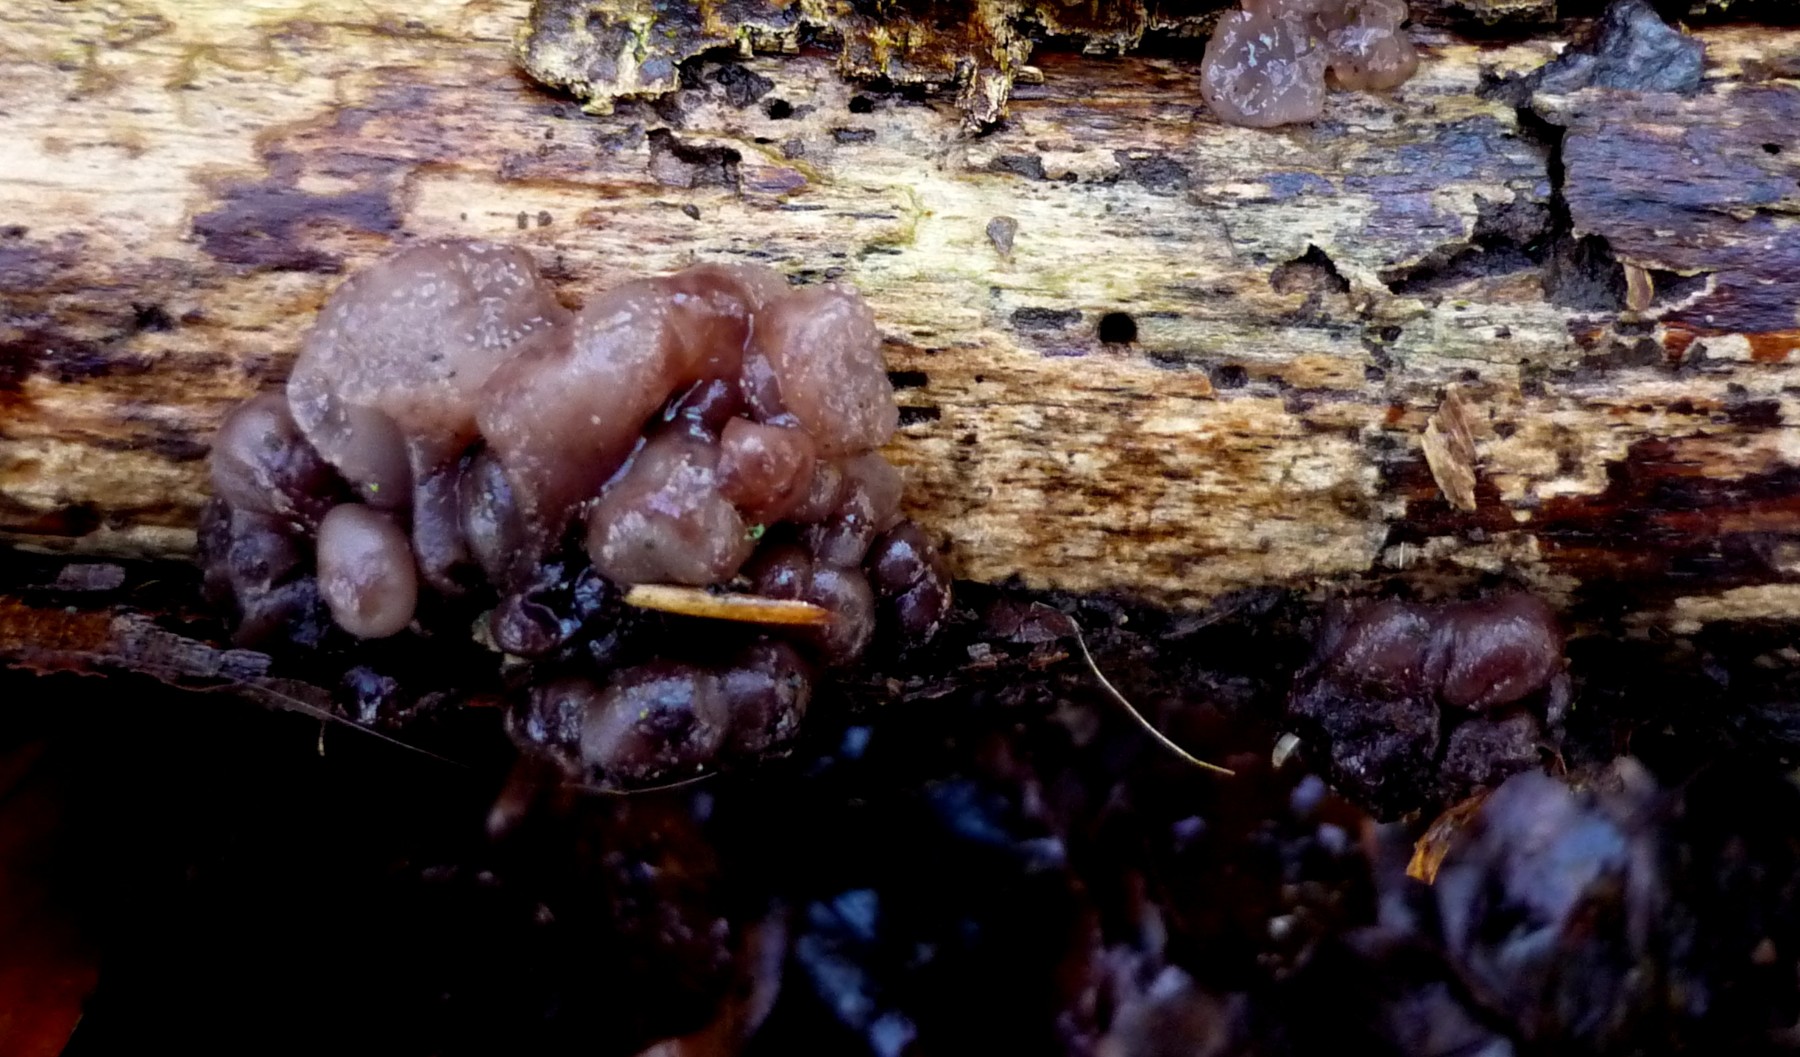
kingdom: Fungi
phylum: Ascomycota
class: Leotiomycetes
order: Helotiales
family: Gelatinodiscaceae
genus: Ascotremella
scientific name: Ascotremella faginea
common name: hjerne-bævreskive
